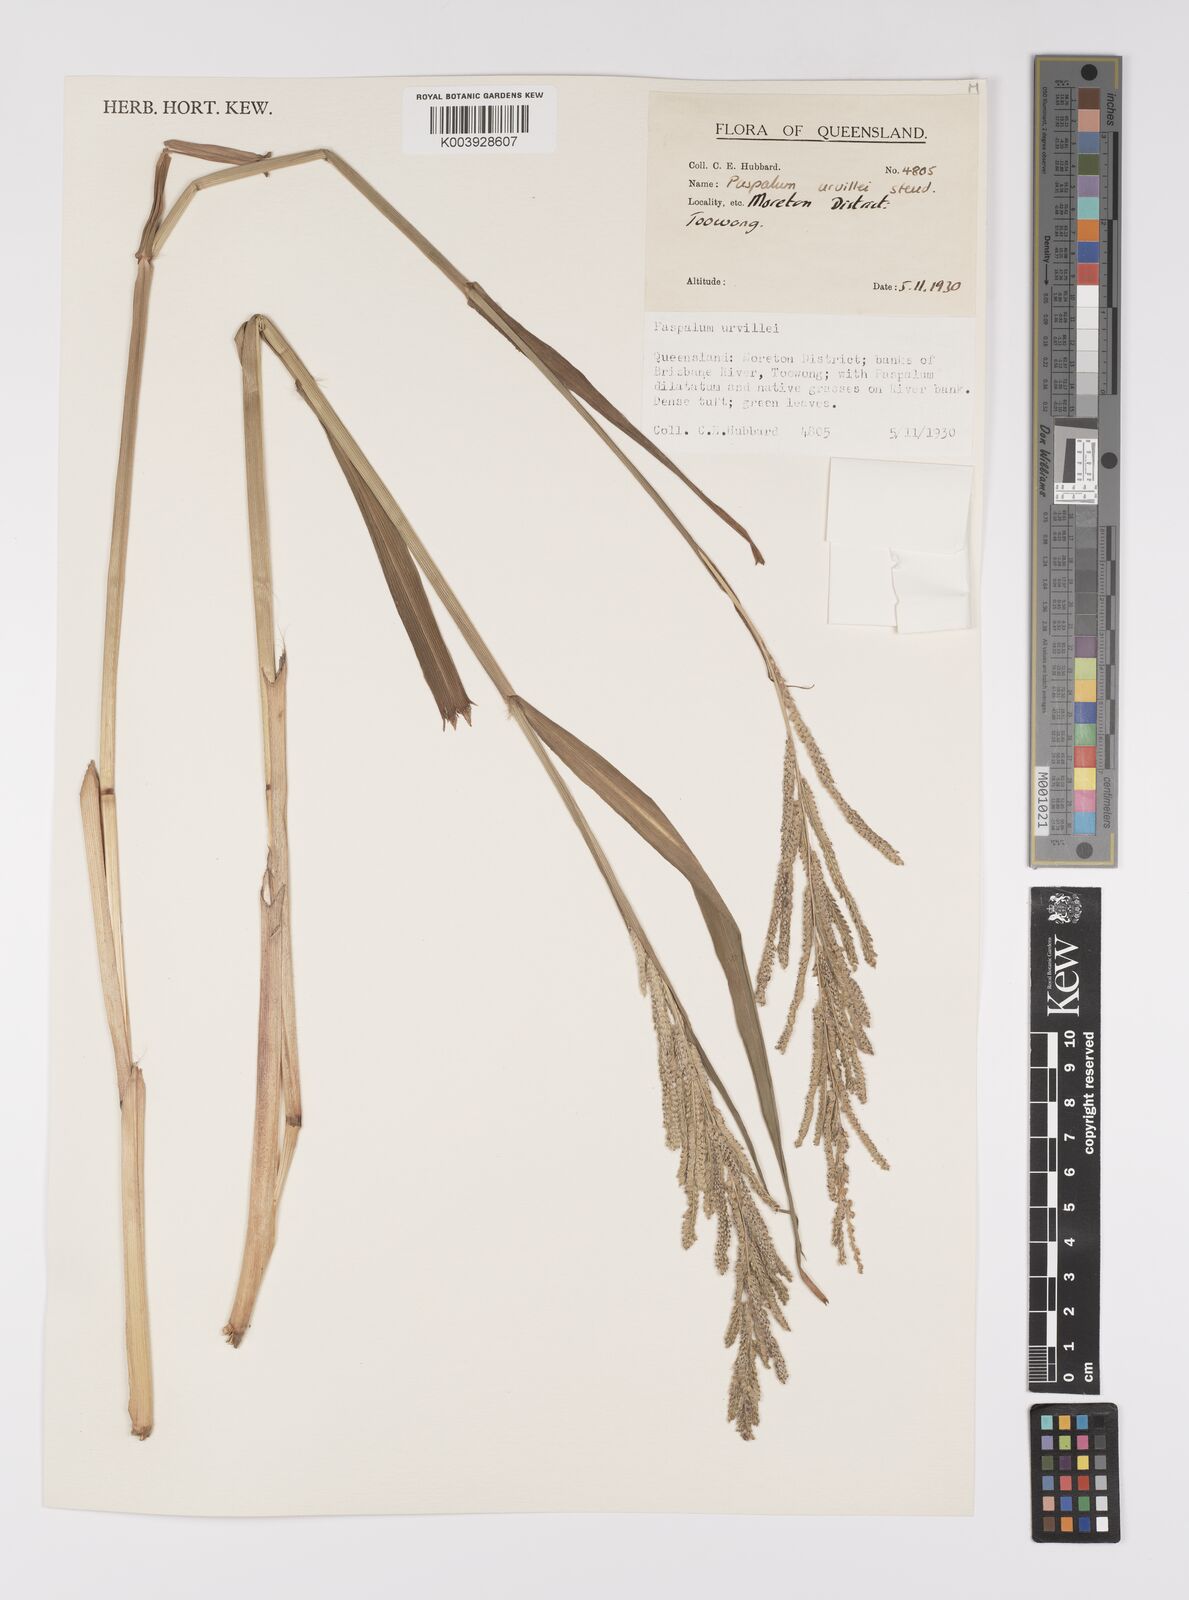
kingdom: Plantae
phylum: Tracheophyta
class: Liliopsida
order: Poales
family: Poaceae
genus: Paspalum
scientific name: Paspalum urvillei
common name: Vasey's grass
